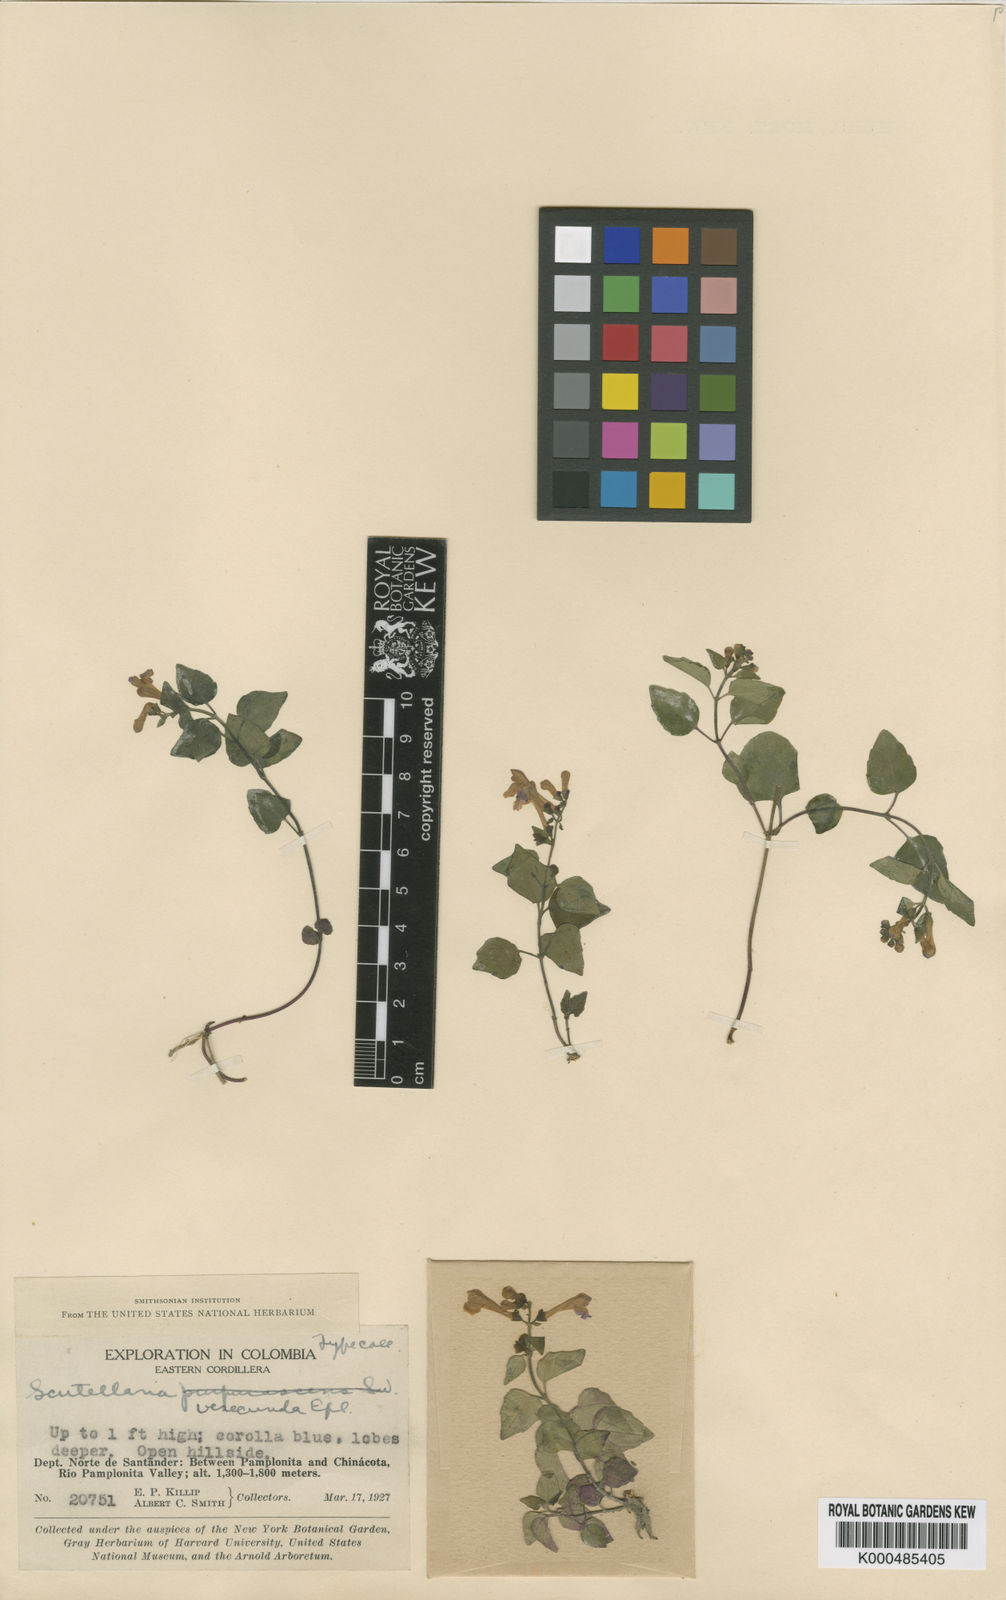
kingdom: Plantae
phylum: Tracheophyta
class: Magnoliopsida
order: Lamiales
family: Lamiaceae
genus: Scutellaria
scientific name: Scutellaria purpurascens
